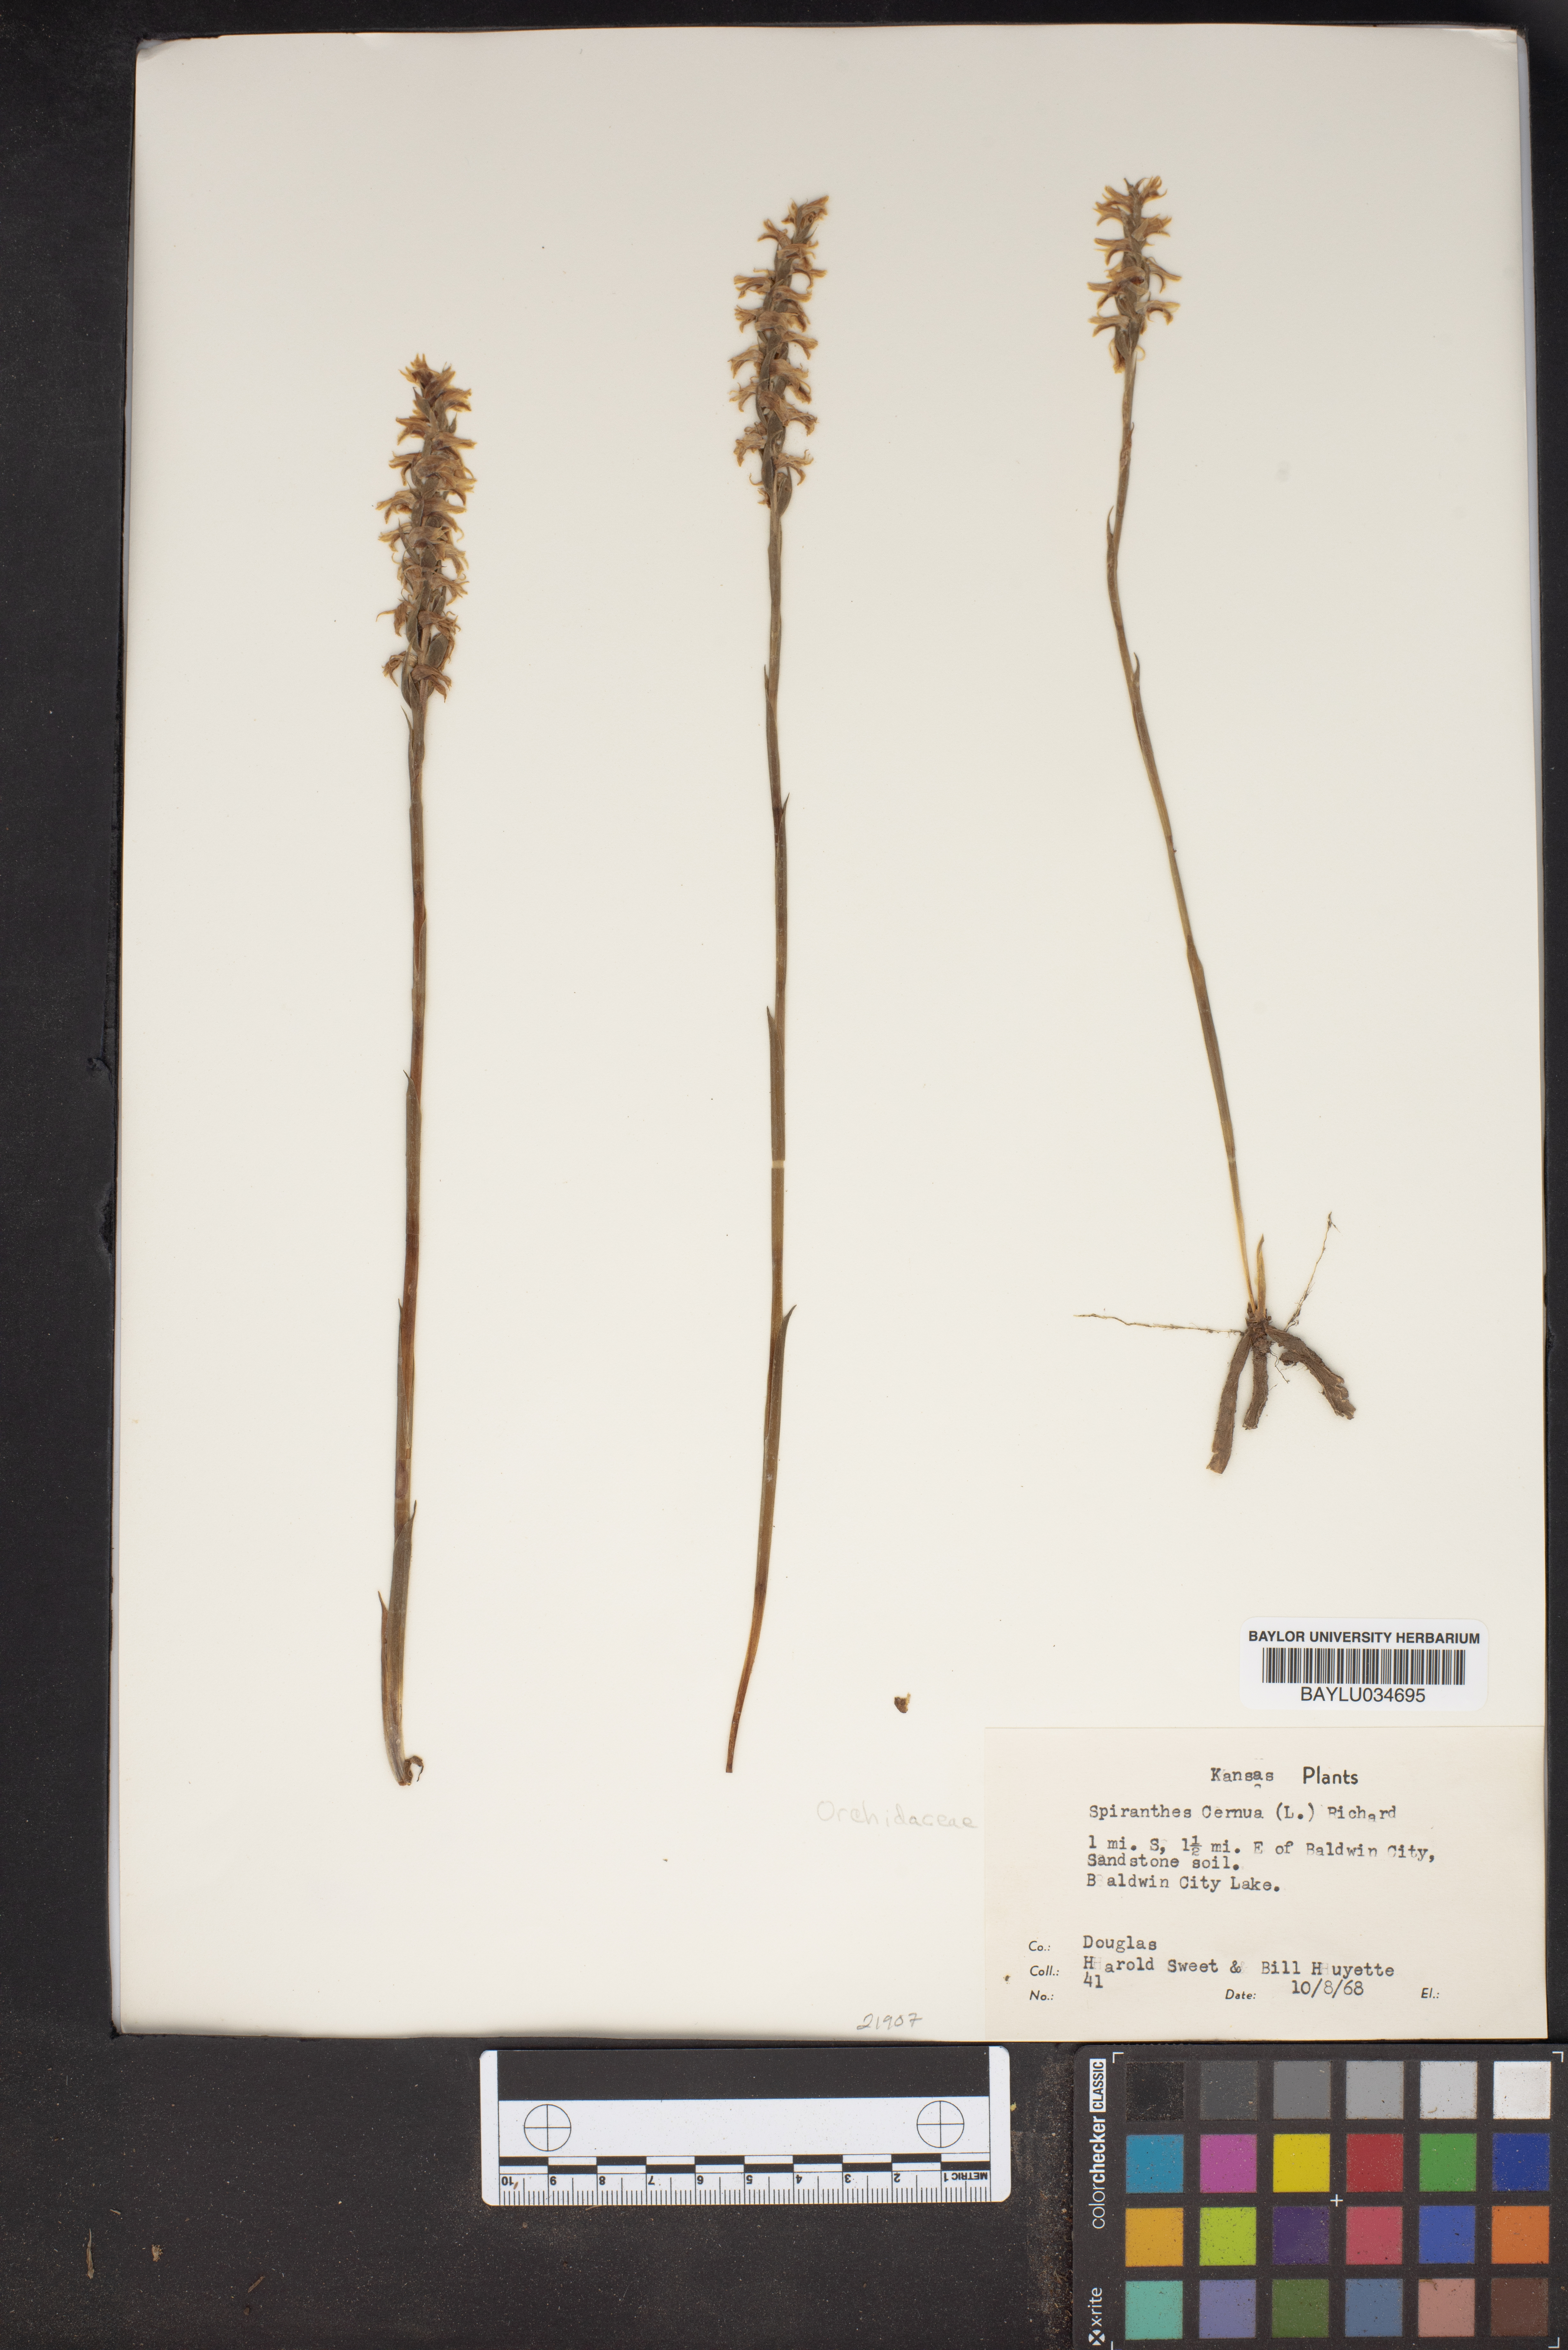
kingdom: Plantae
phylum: Tracheophyta
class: Liliopsida
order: Asparagales
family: Orchidaceae
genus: Spiranthes
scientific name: Spiranthes cernua
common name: Dropping ladies'-tresses
